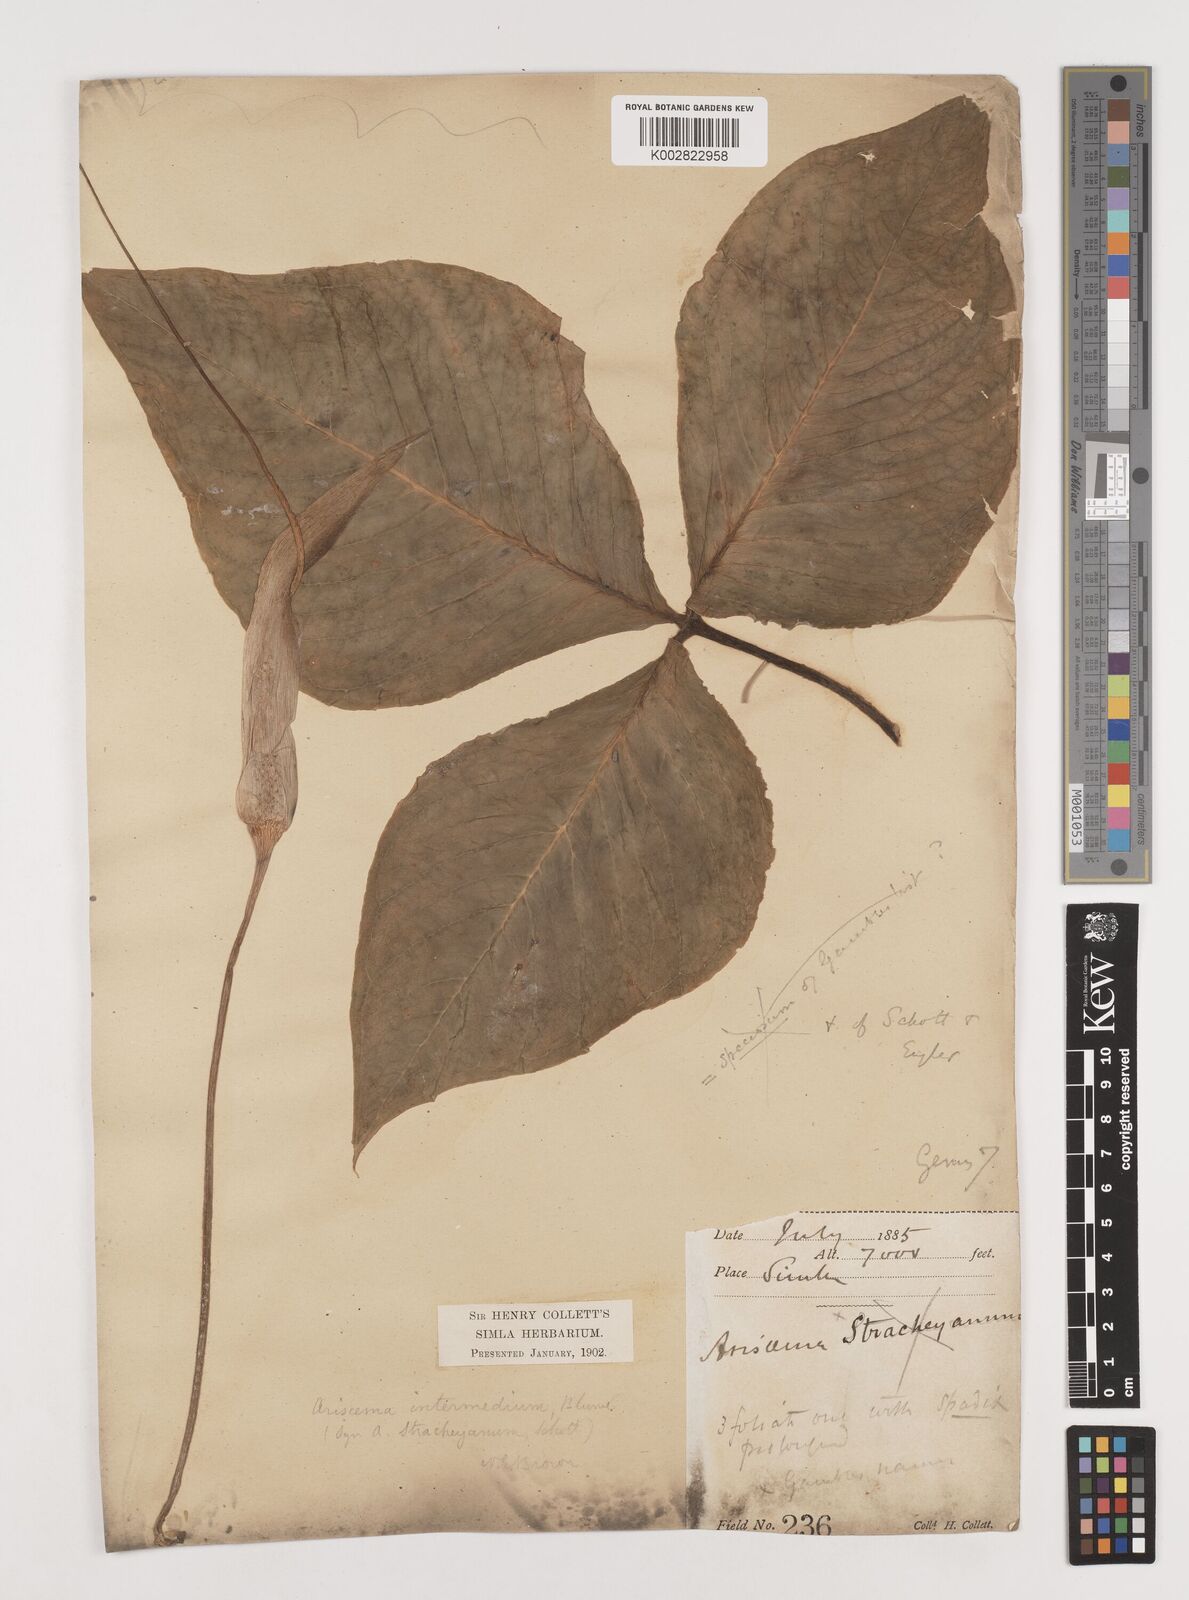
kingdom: Plantae
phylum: Tracheophyta
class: Liliopsida
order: Alismatales
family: Araceae
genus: Arisaema
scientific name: Arisaema intermedium
